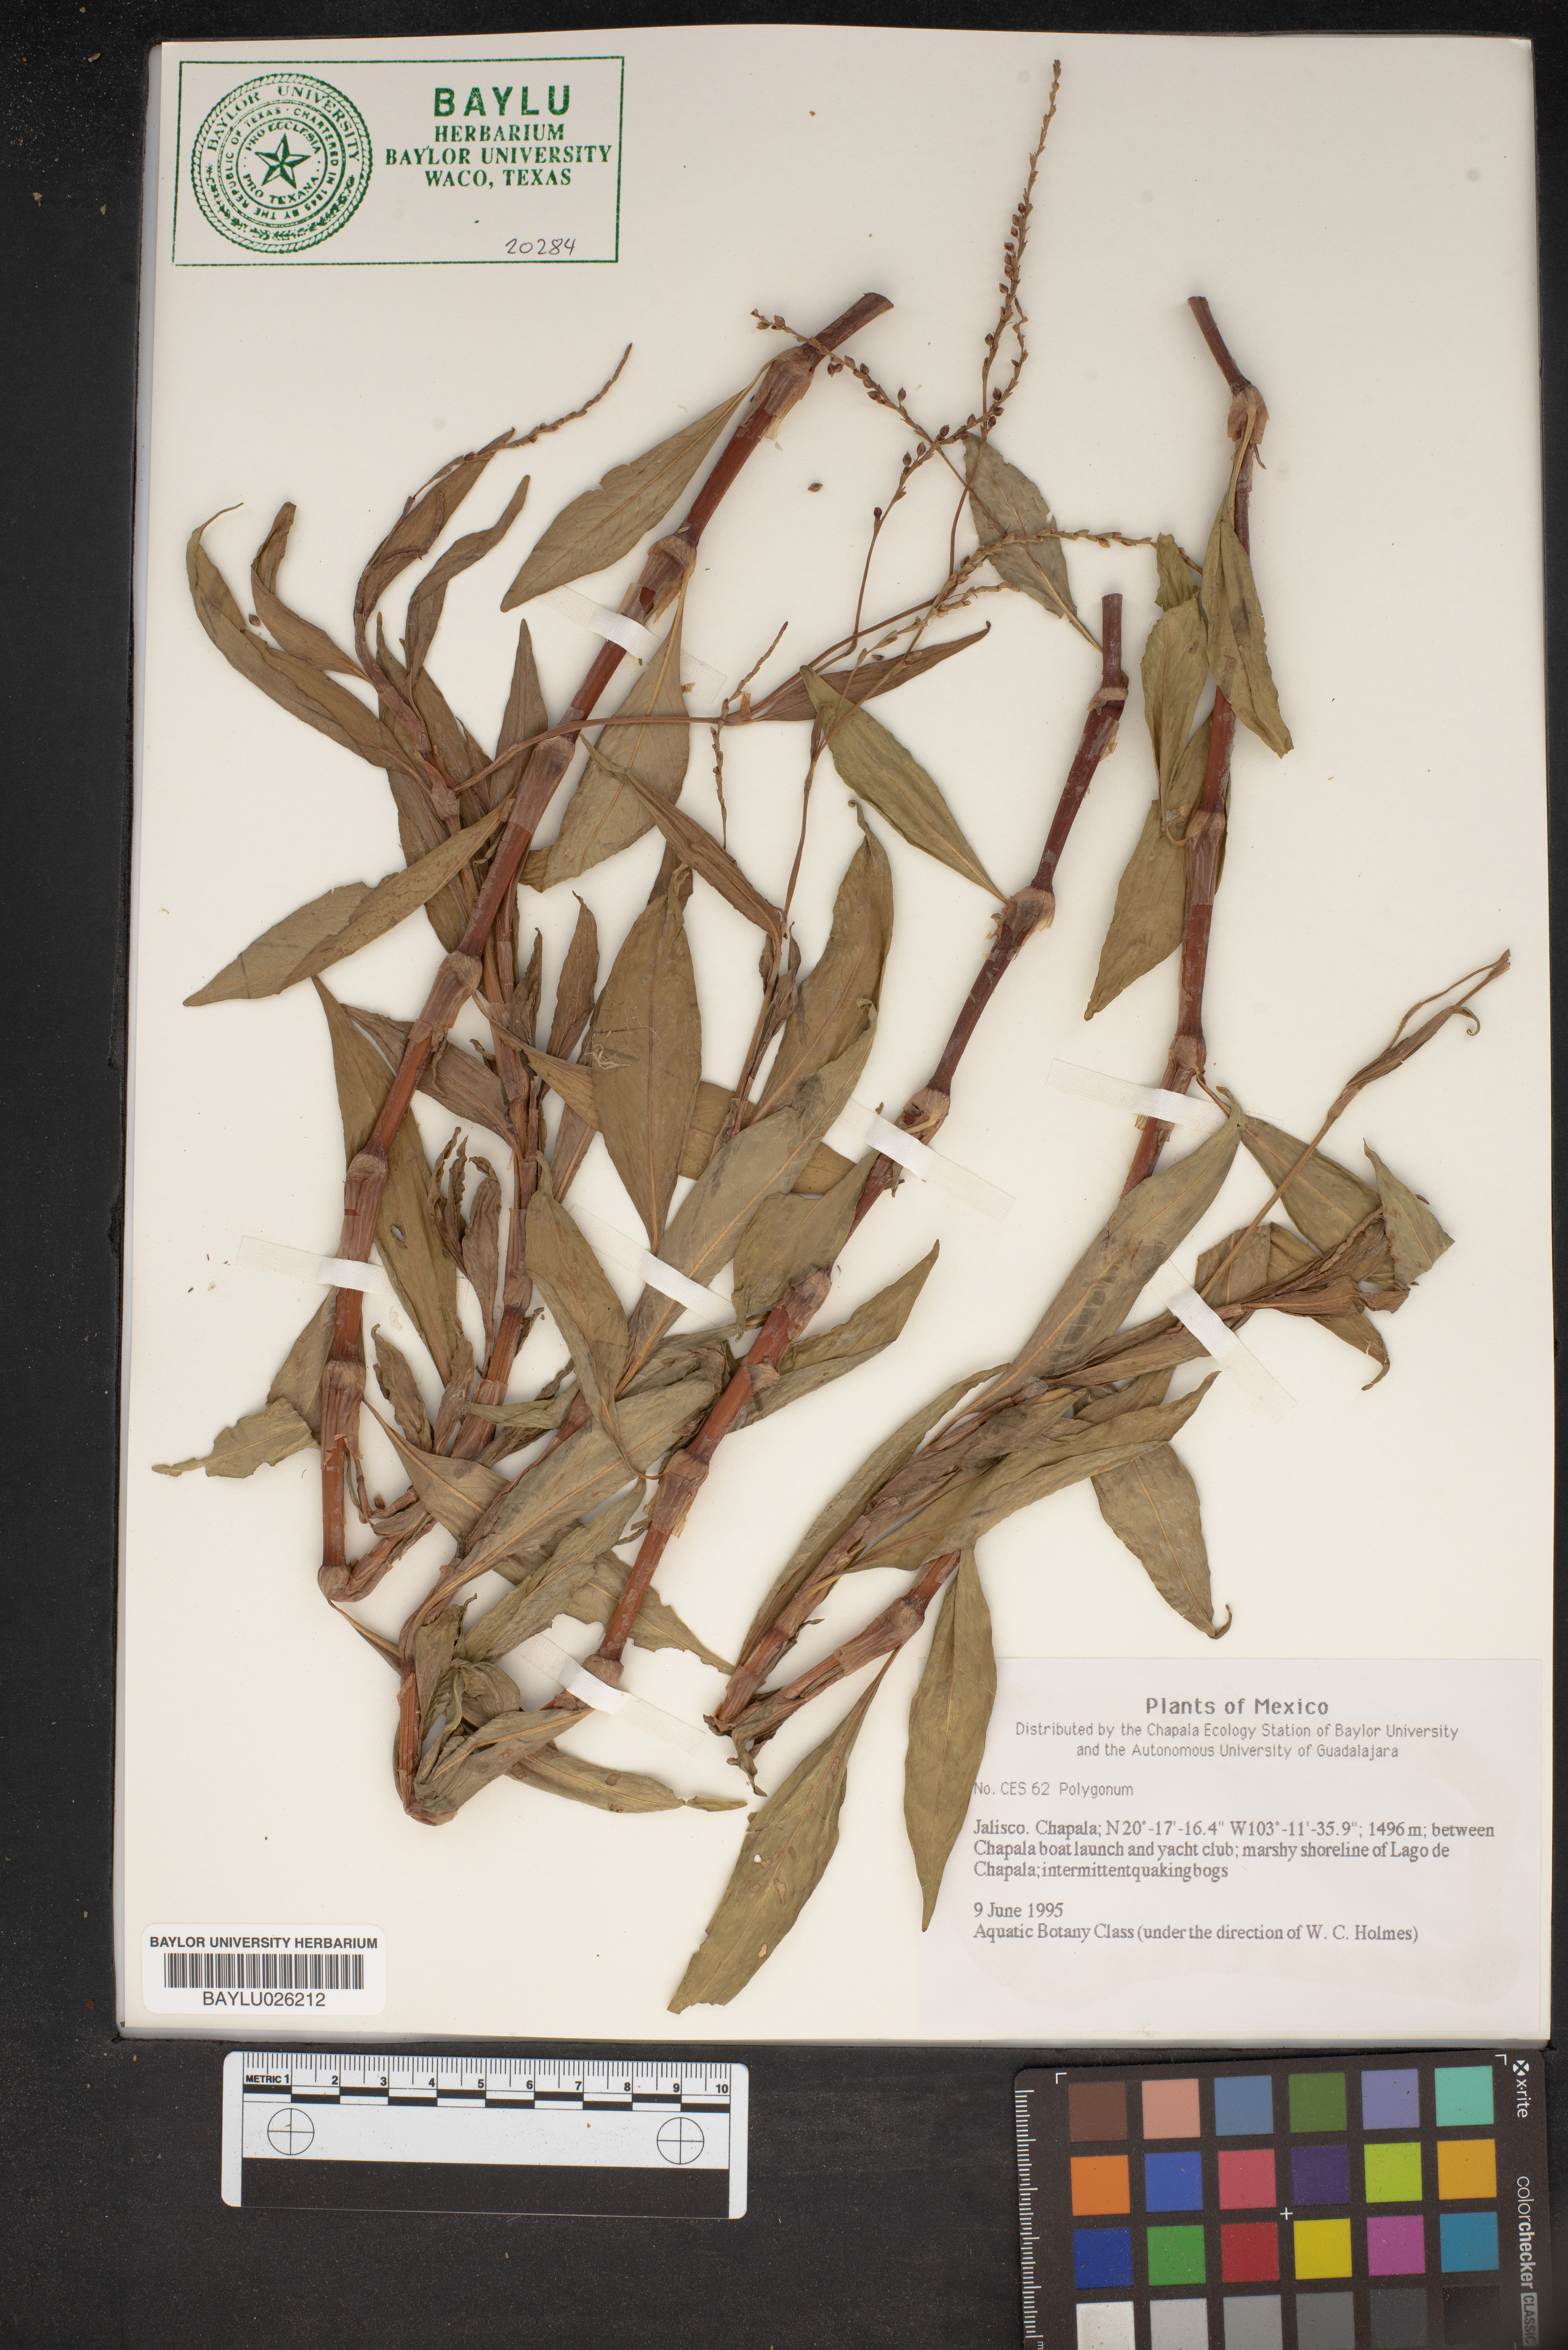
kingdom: Plantae
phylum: Tracheophyta
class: Magnoliopsida
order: Caryophyllales
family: Polygonaceae
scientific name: Polygonaceae
